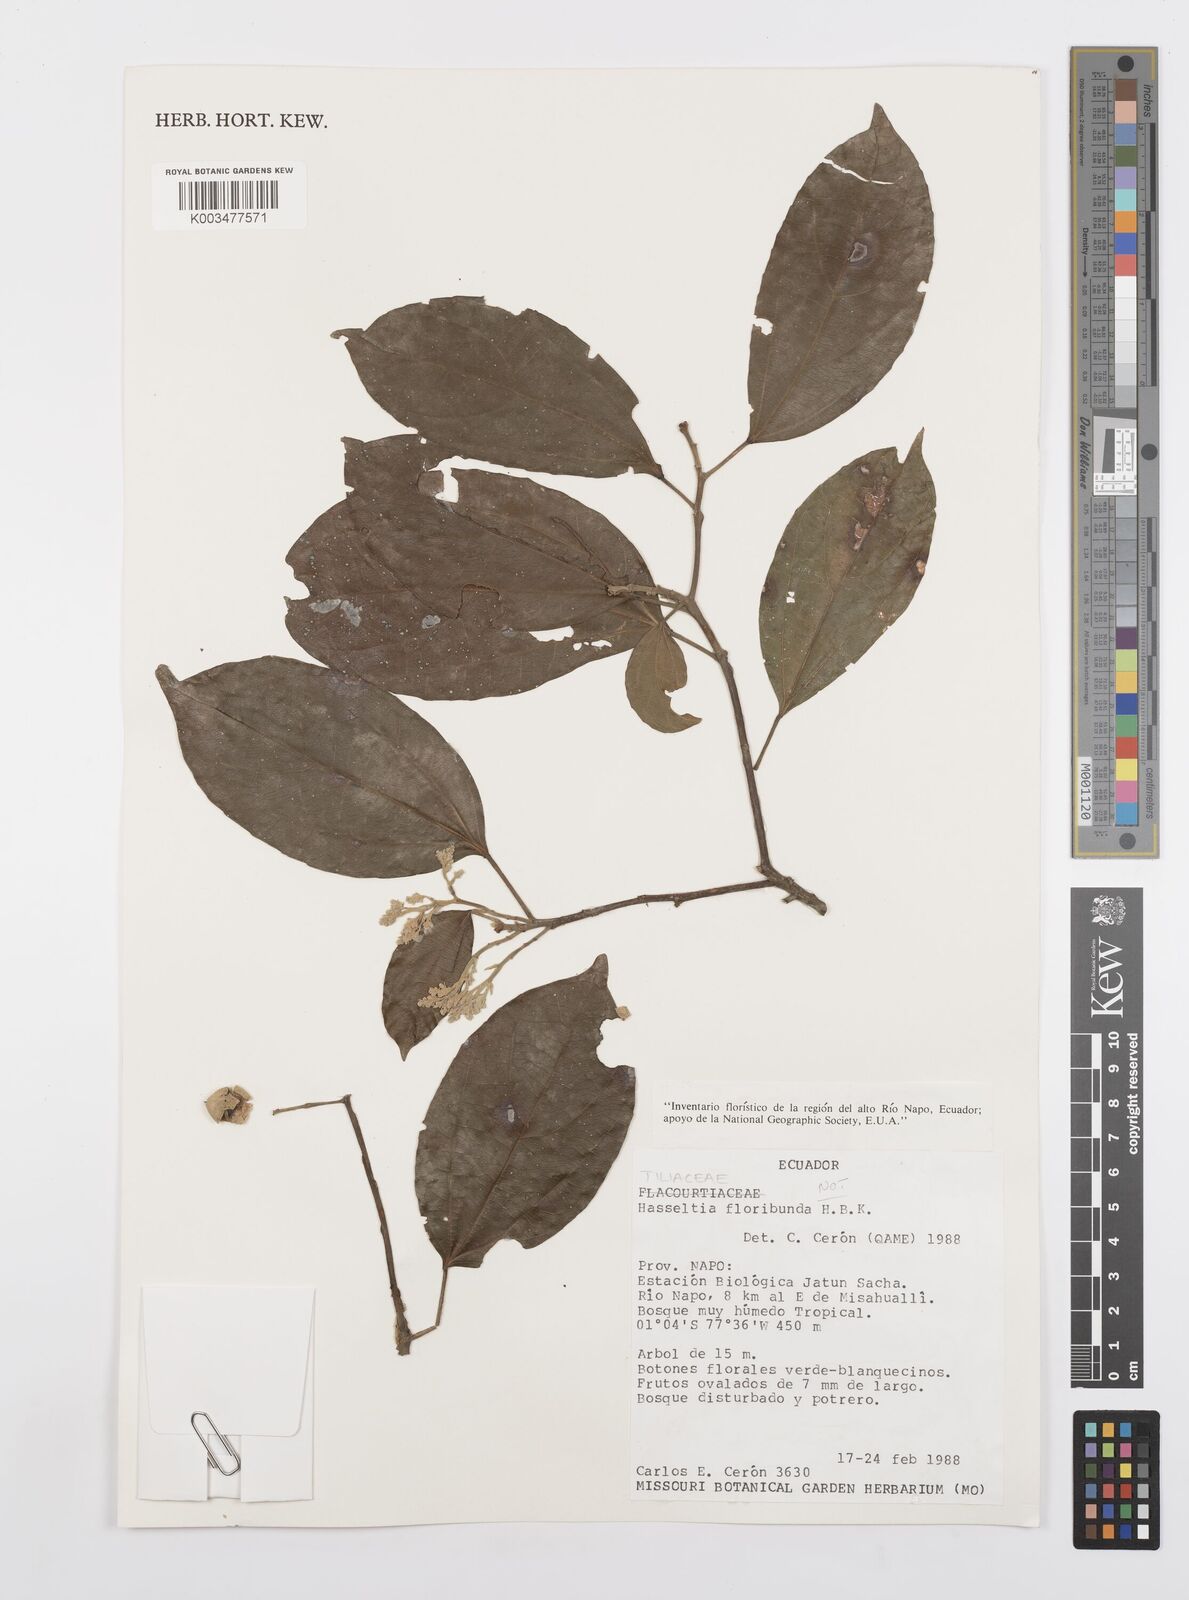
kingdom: Plantae
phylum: Tracheophyta
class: Magnoliopsida
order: Malpighiales
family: Salicaceae
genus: Hasseltia
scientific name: Hasseltia floribunda
